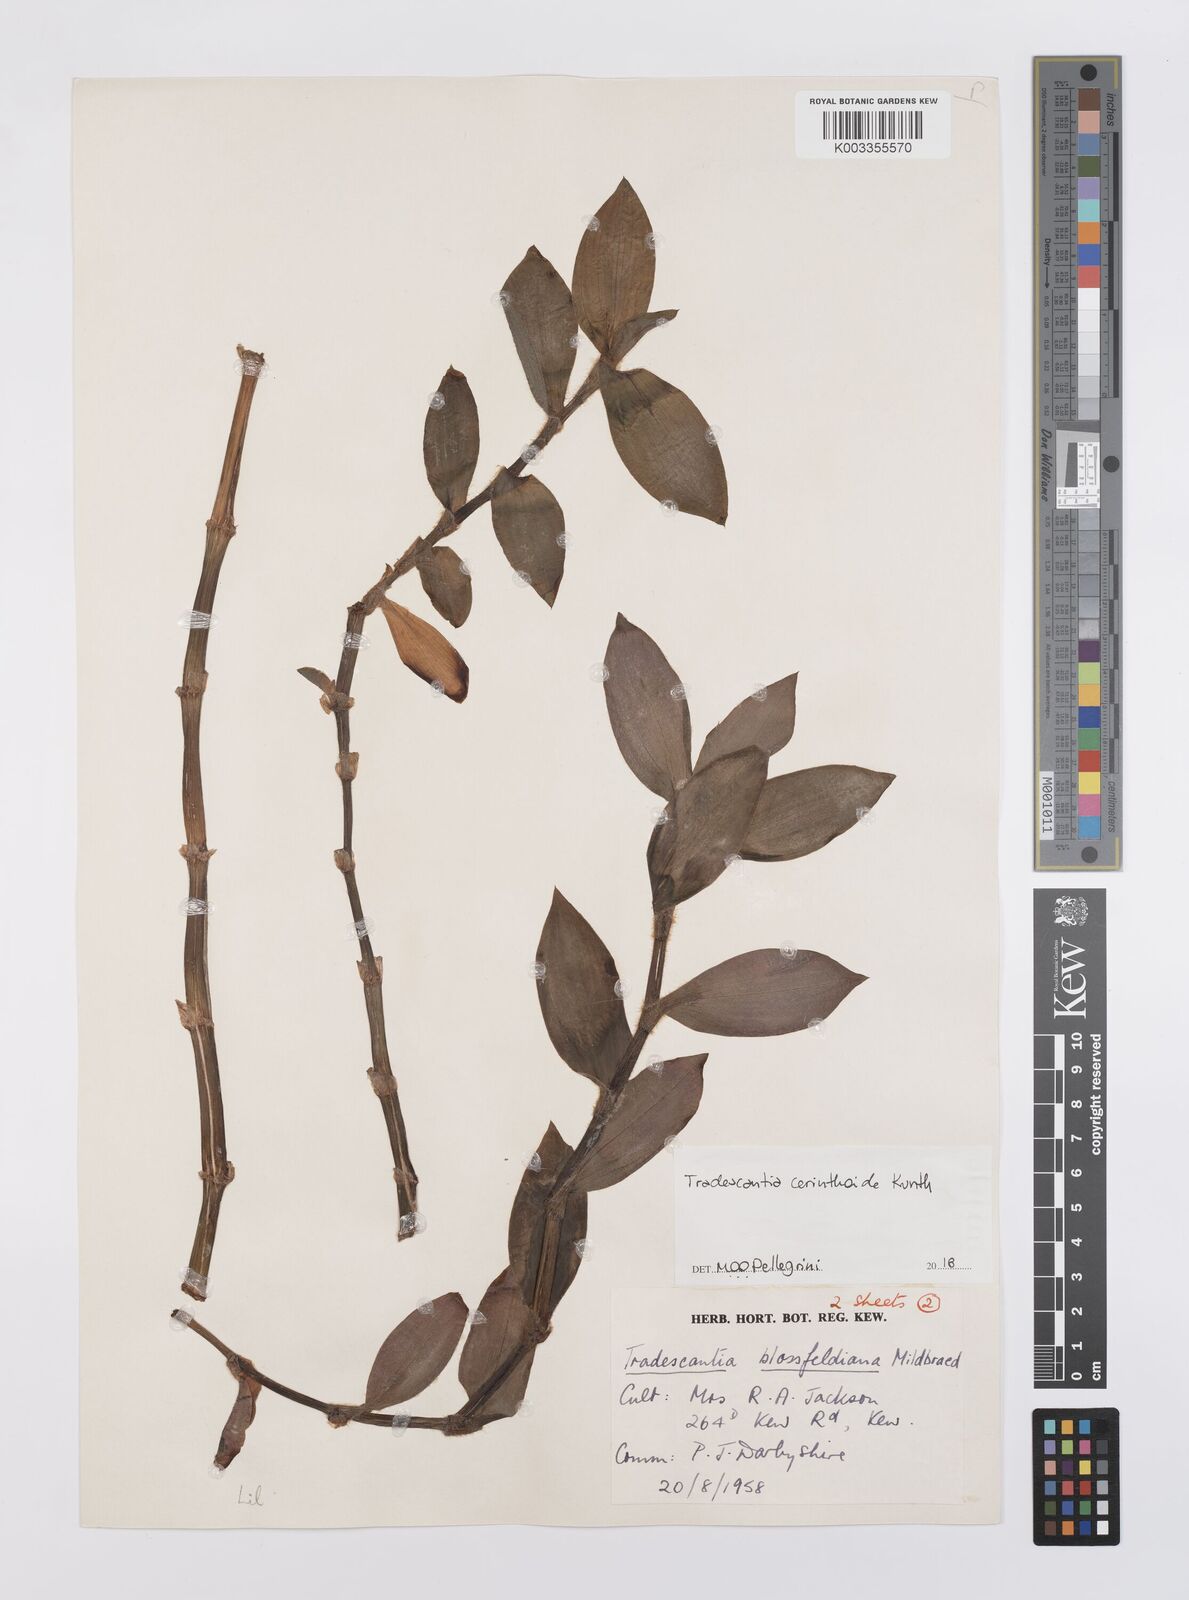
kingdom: Plantae
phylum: Tracheophyta
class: Liliopsida
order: Commelinales
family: Commelinaceae
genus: Tradescantia
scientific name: Tradescantia cerinthoides
